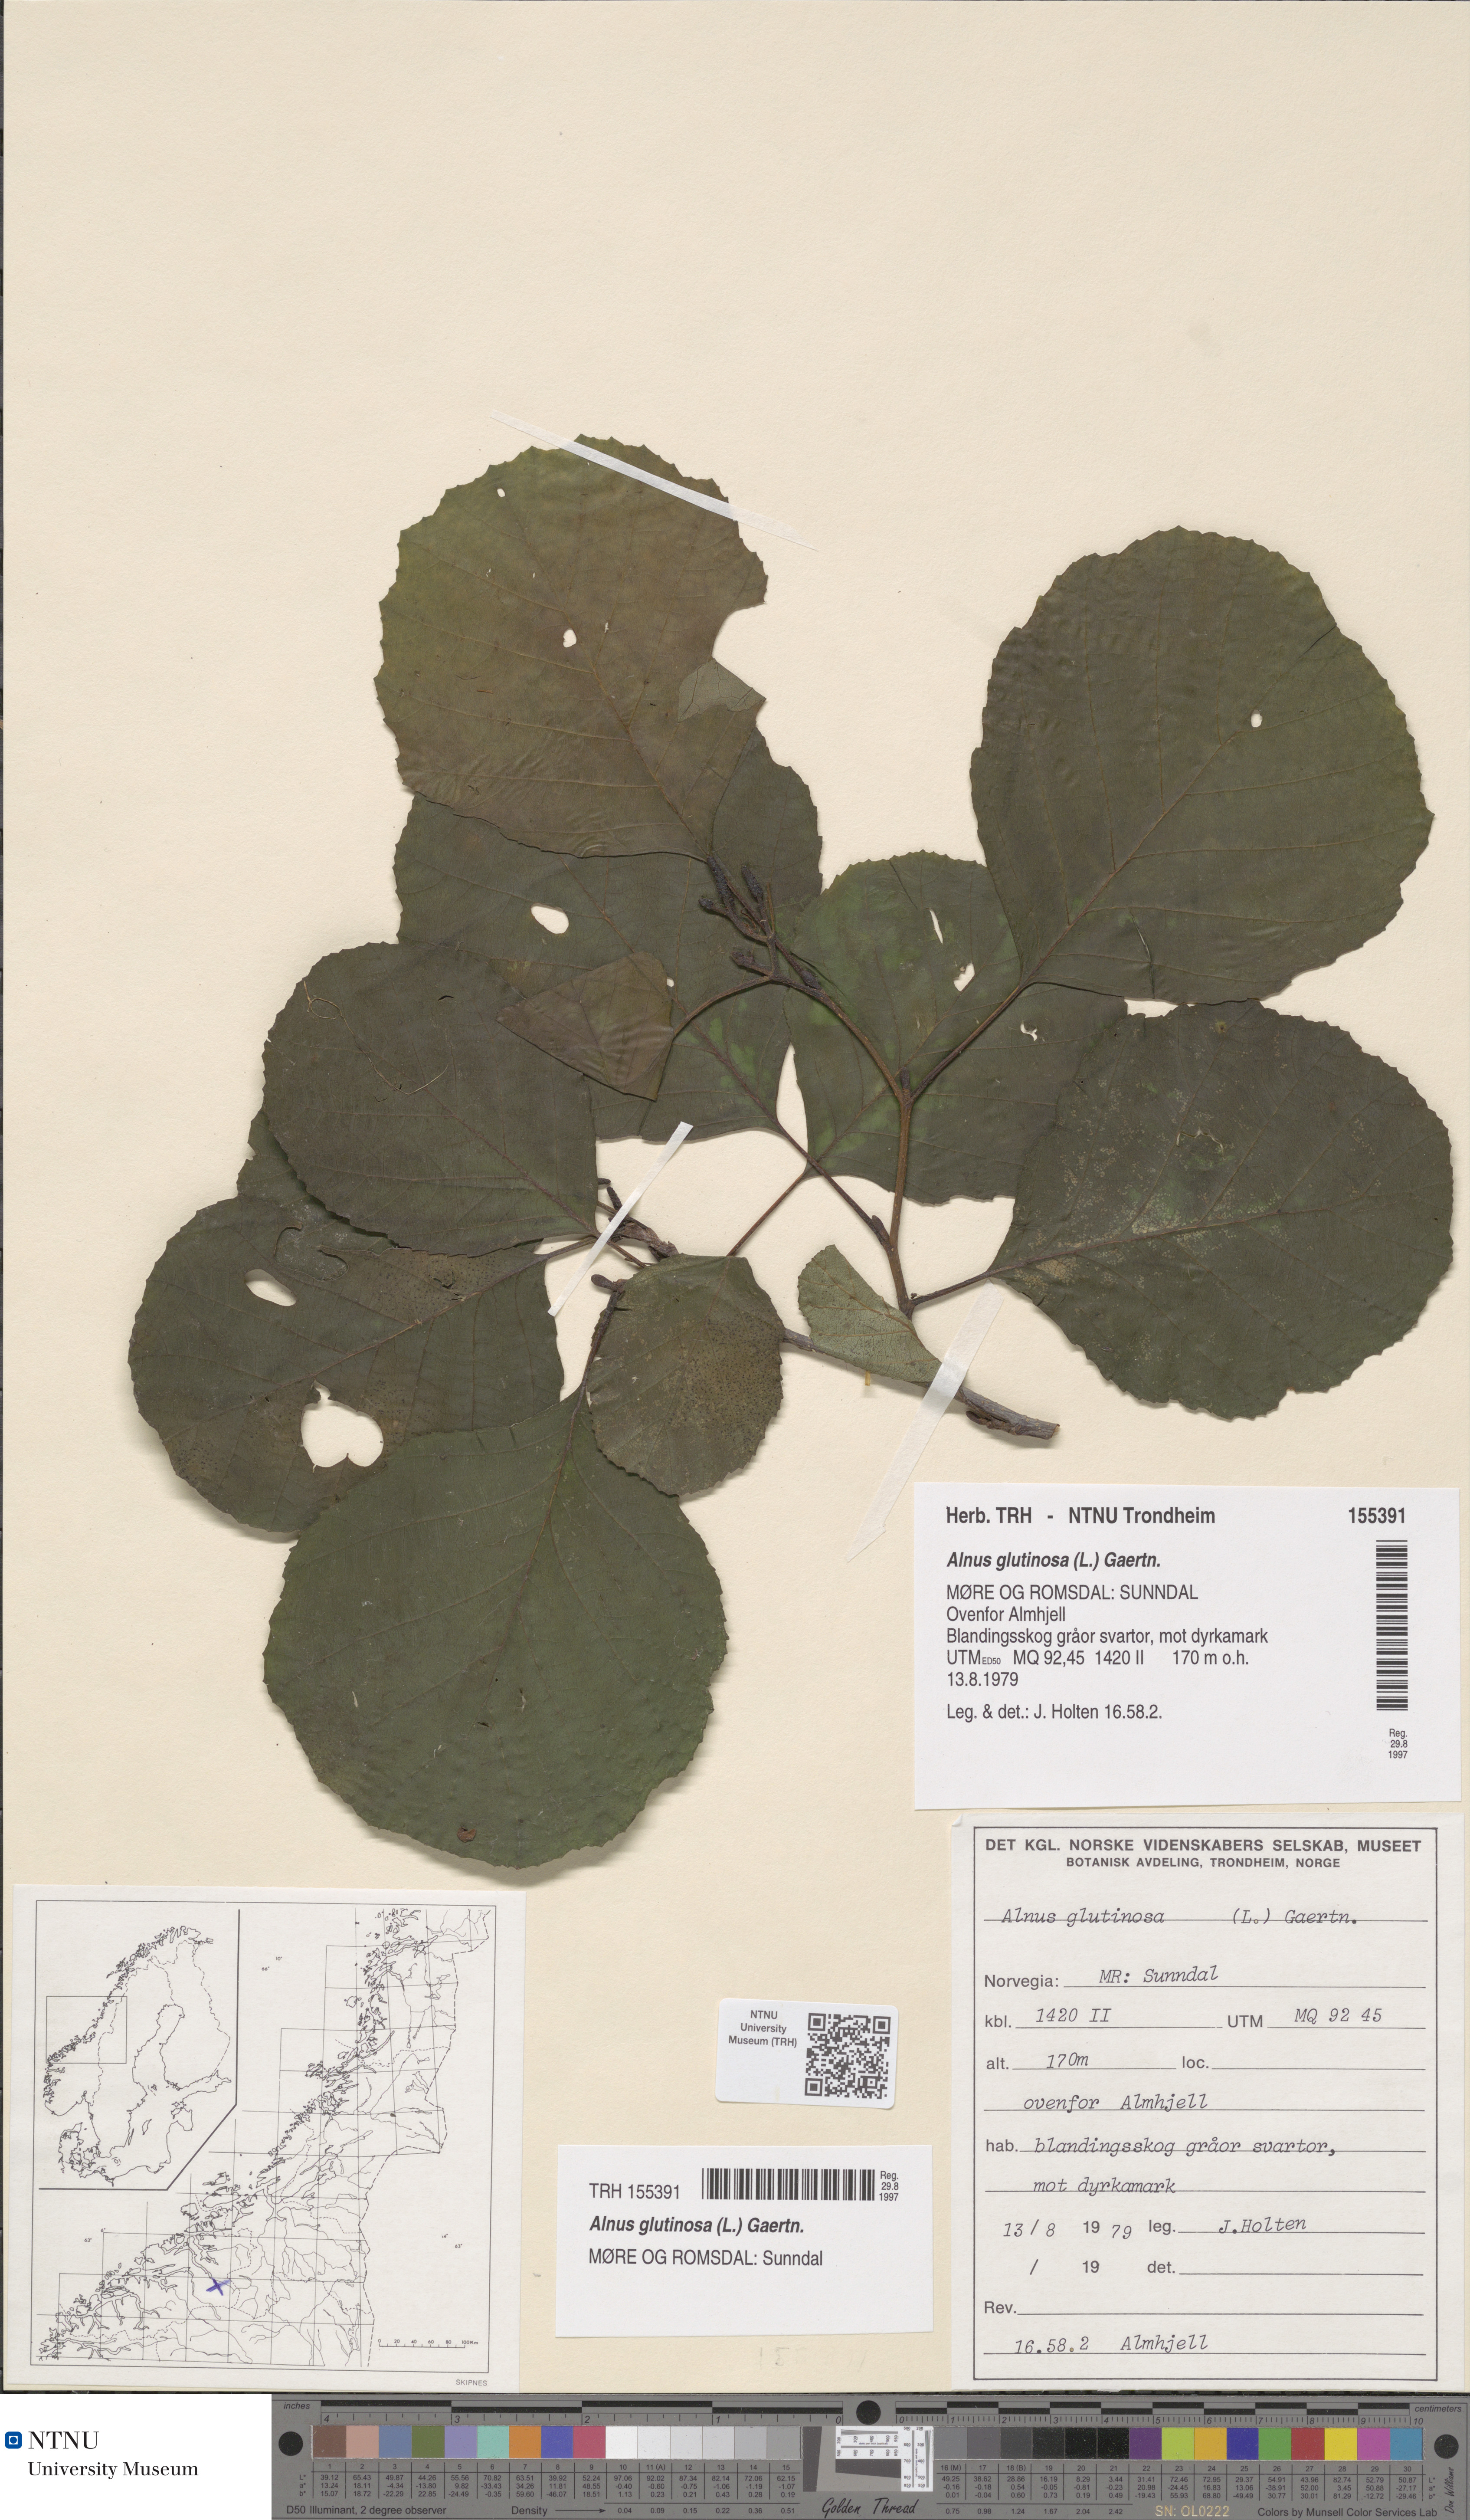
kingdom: Plantae
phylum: Tracheophyta
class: Magnoliopsida
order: Fagales
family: Betulaceae
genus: Alnus
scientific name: Alnus glutinosa
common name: Black alder
